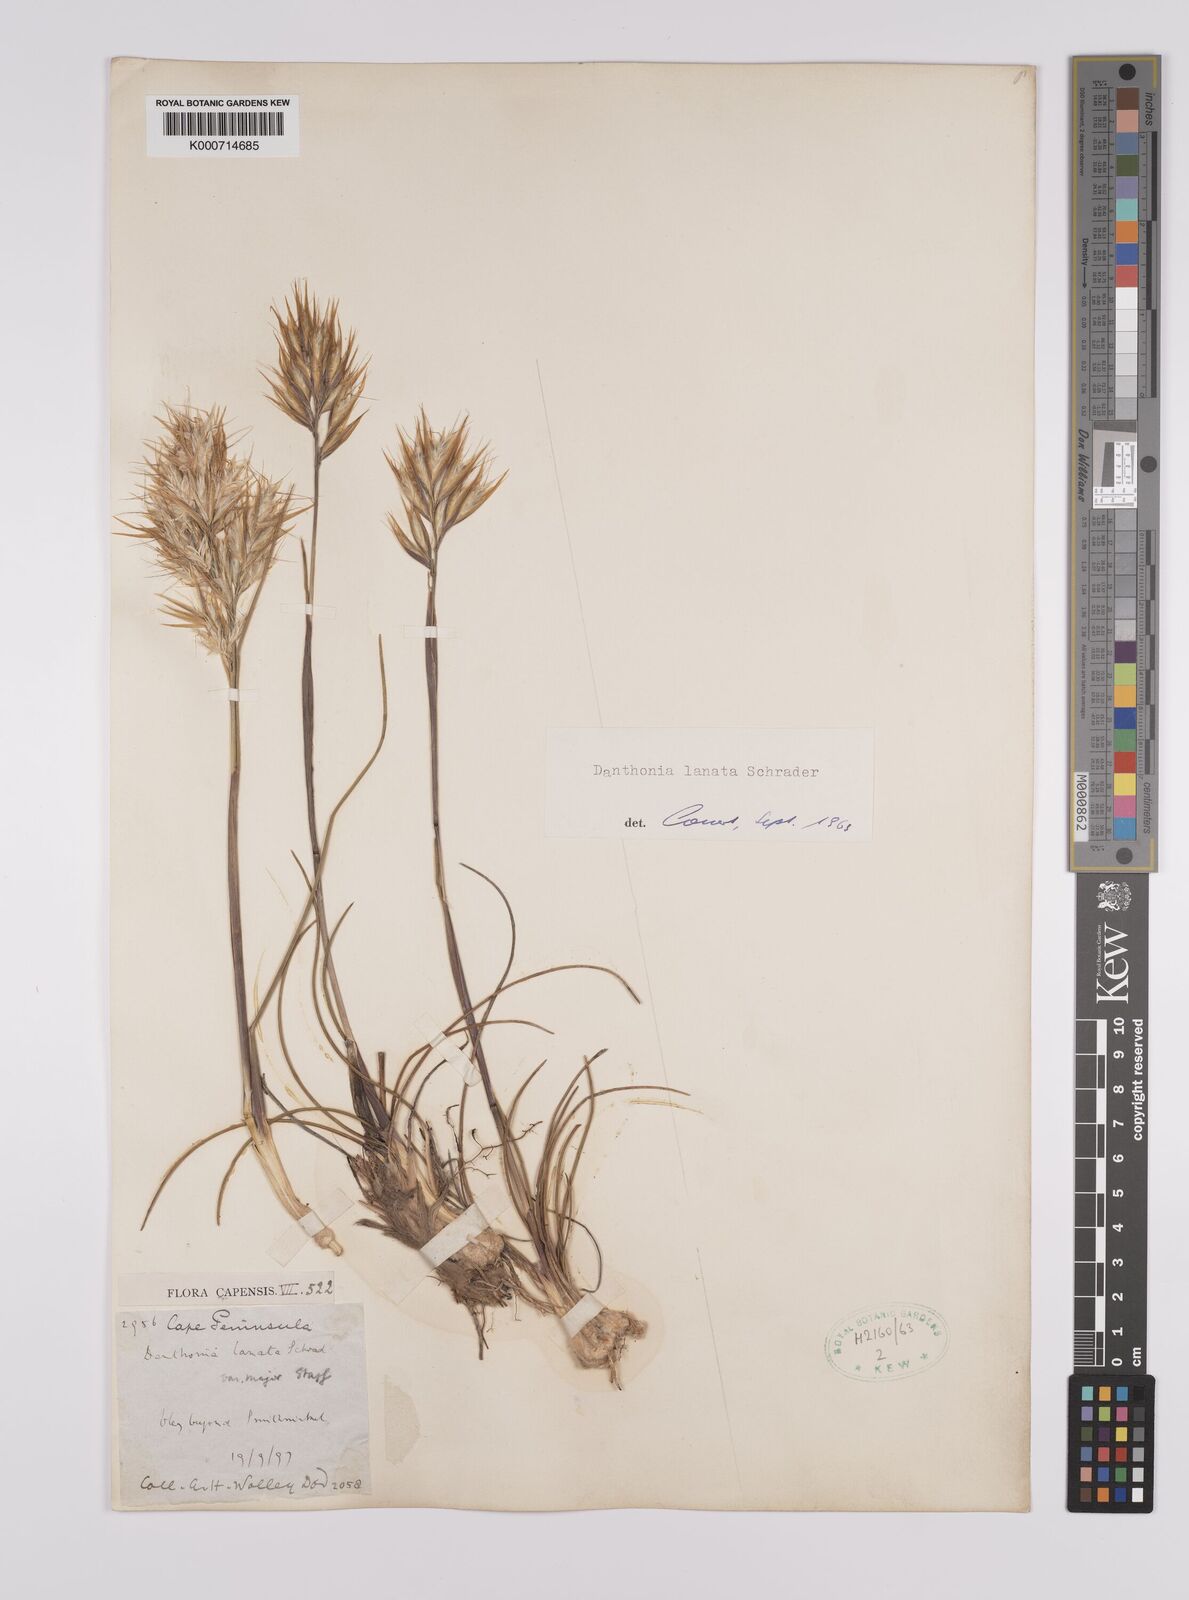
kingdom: Plantae
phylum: Tracheophyta
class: Liliopsida
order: Poales
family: Poaceae
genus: Rytidosperma
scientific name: Rytidosperma
